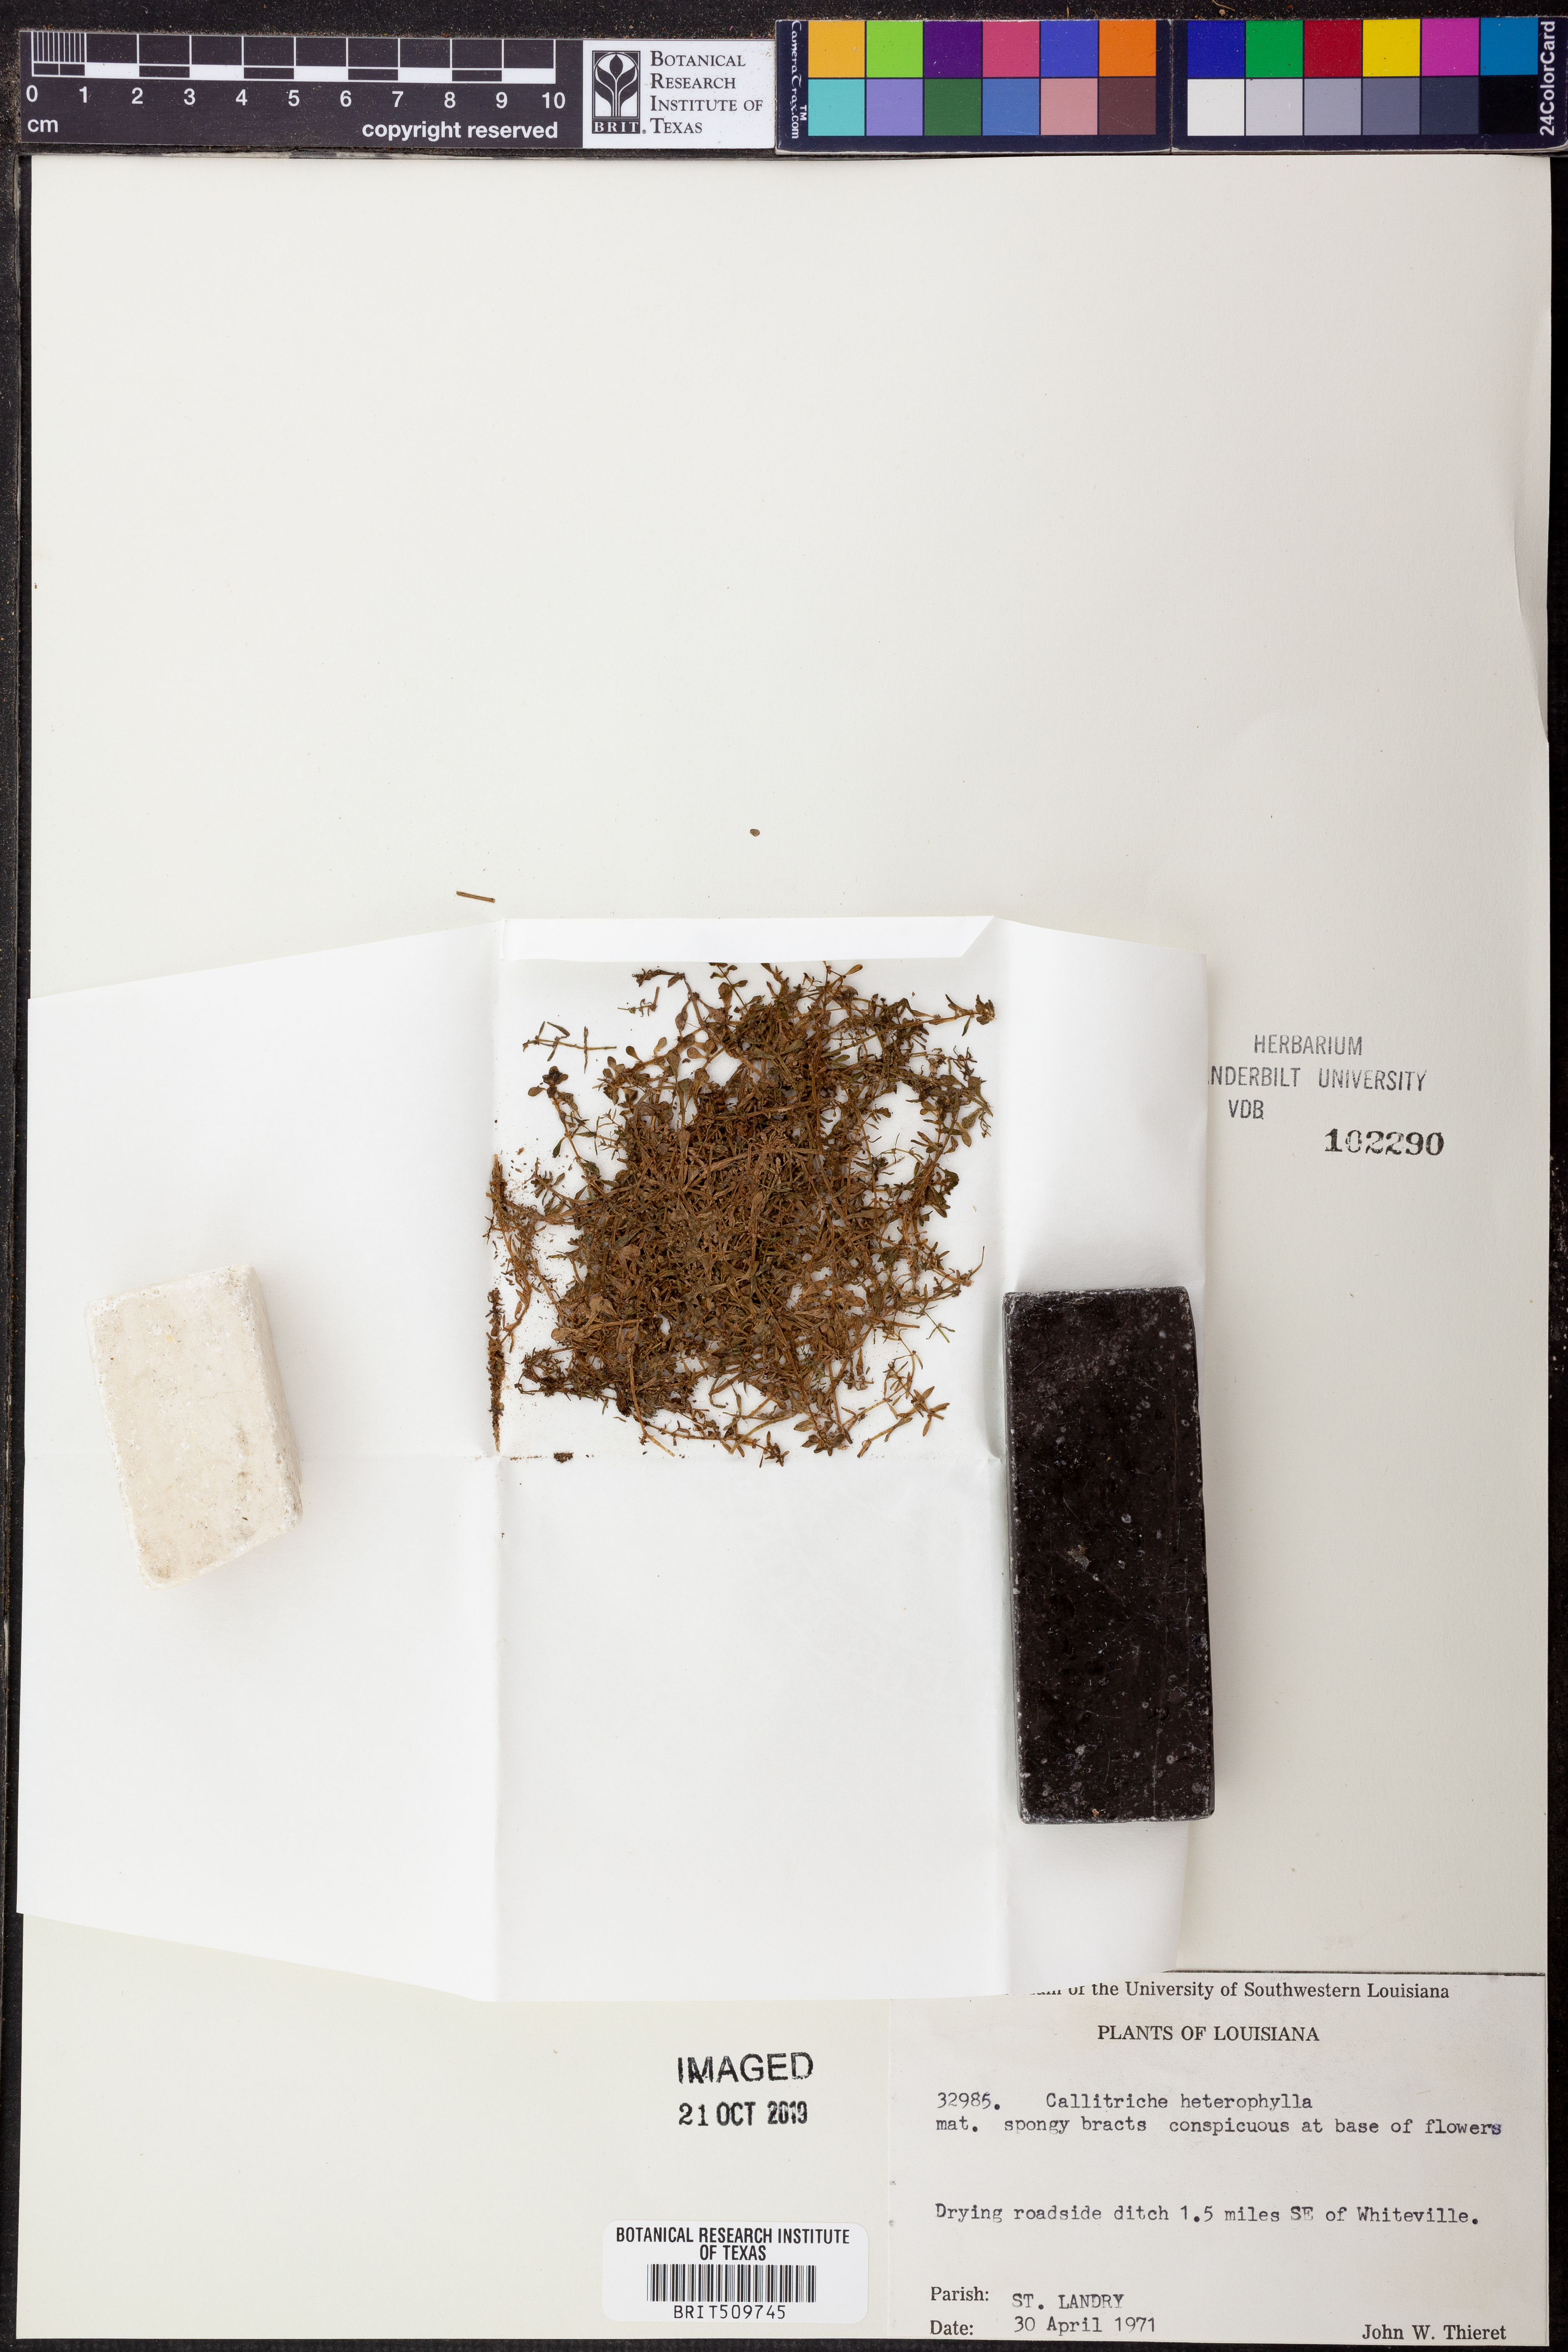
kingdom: Plantae
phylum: Tracheophyta
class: Magnoliopsida
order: Lamiales
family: Plantaginaceae
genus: Callitriche
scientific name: Callitriche heterophylla
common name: Two-headed water-starwort
